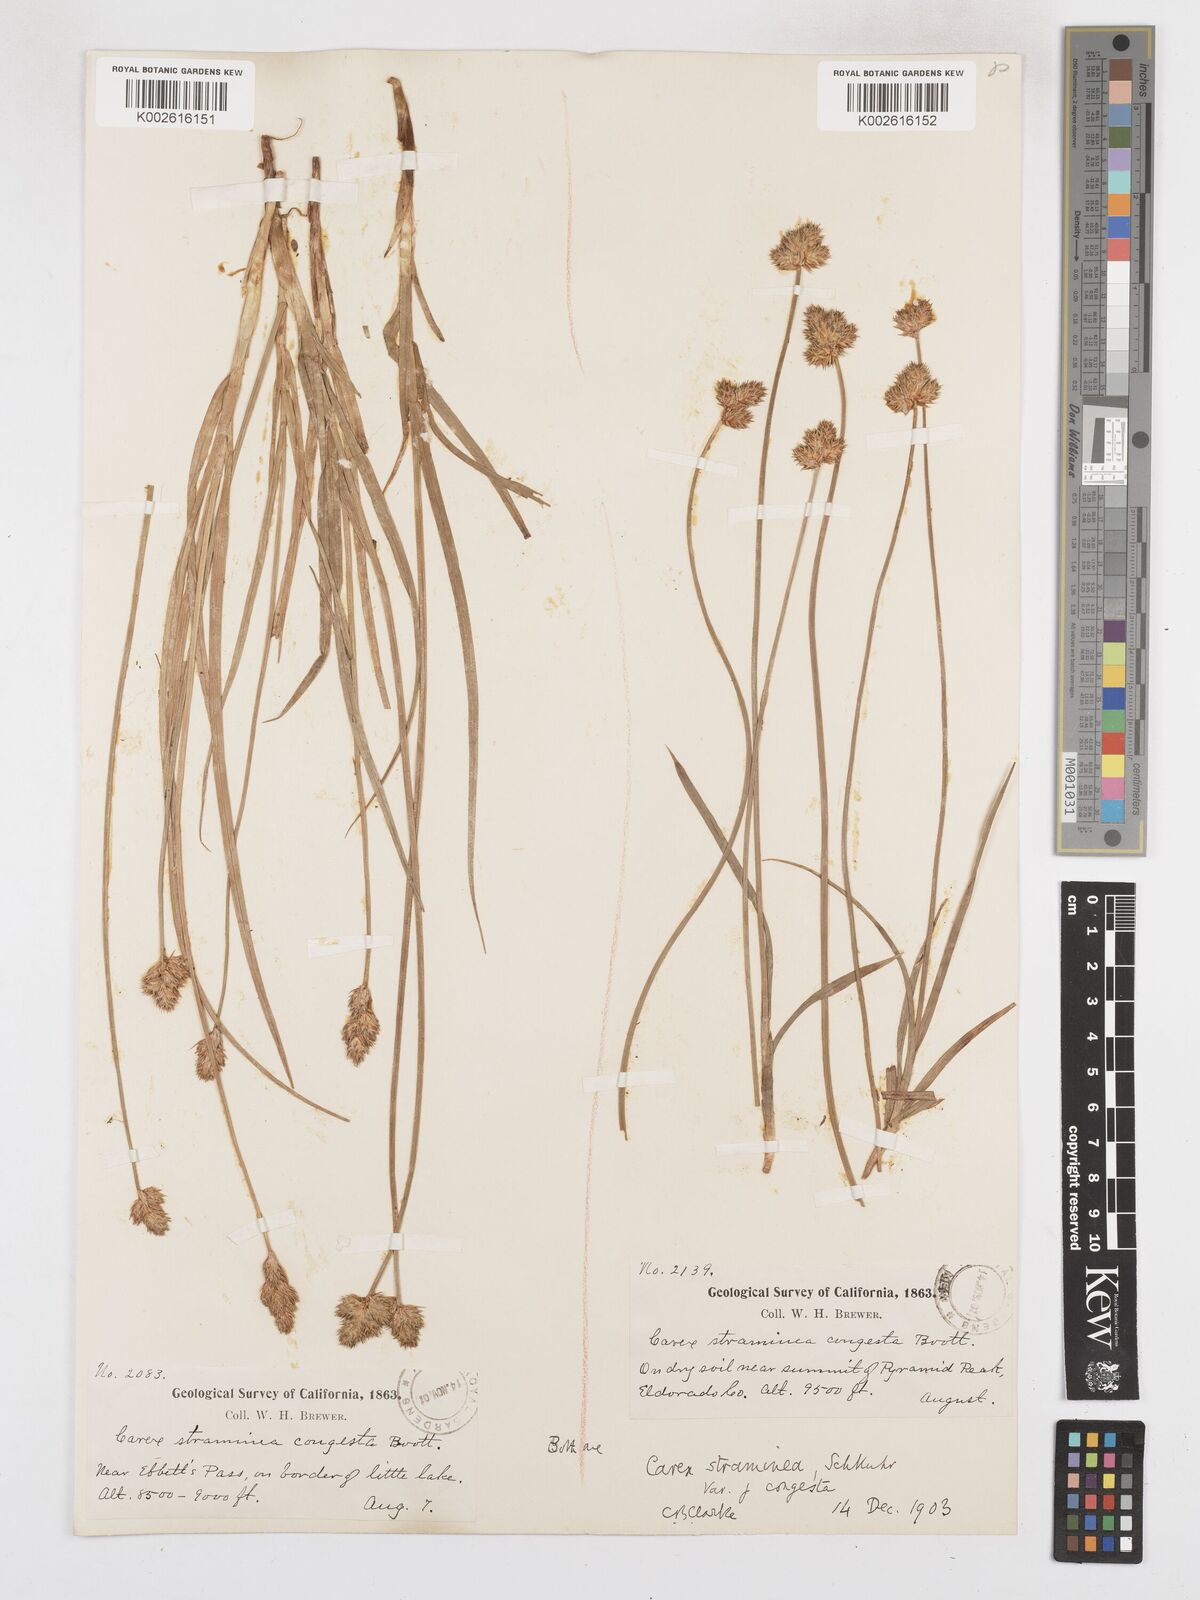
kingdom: Plantae
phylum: Tracheophyta
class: Liliopsida
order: Poales
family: Cyperaceae
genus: Carex
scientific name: Carex brevior
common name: Brevior sedge
